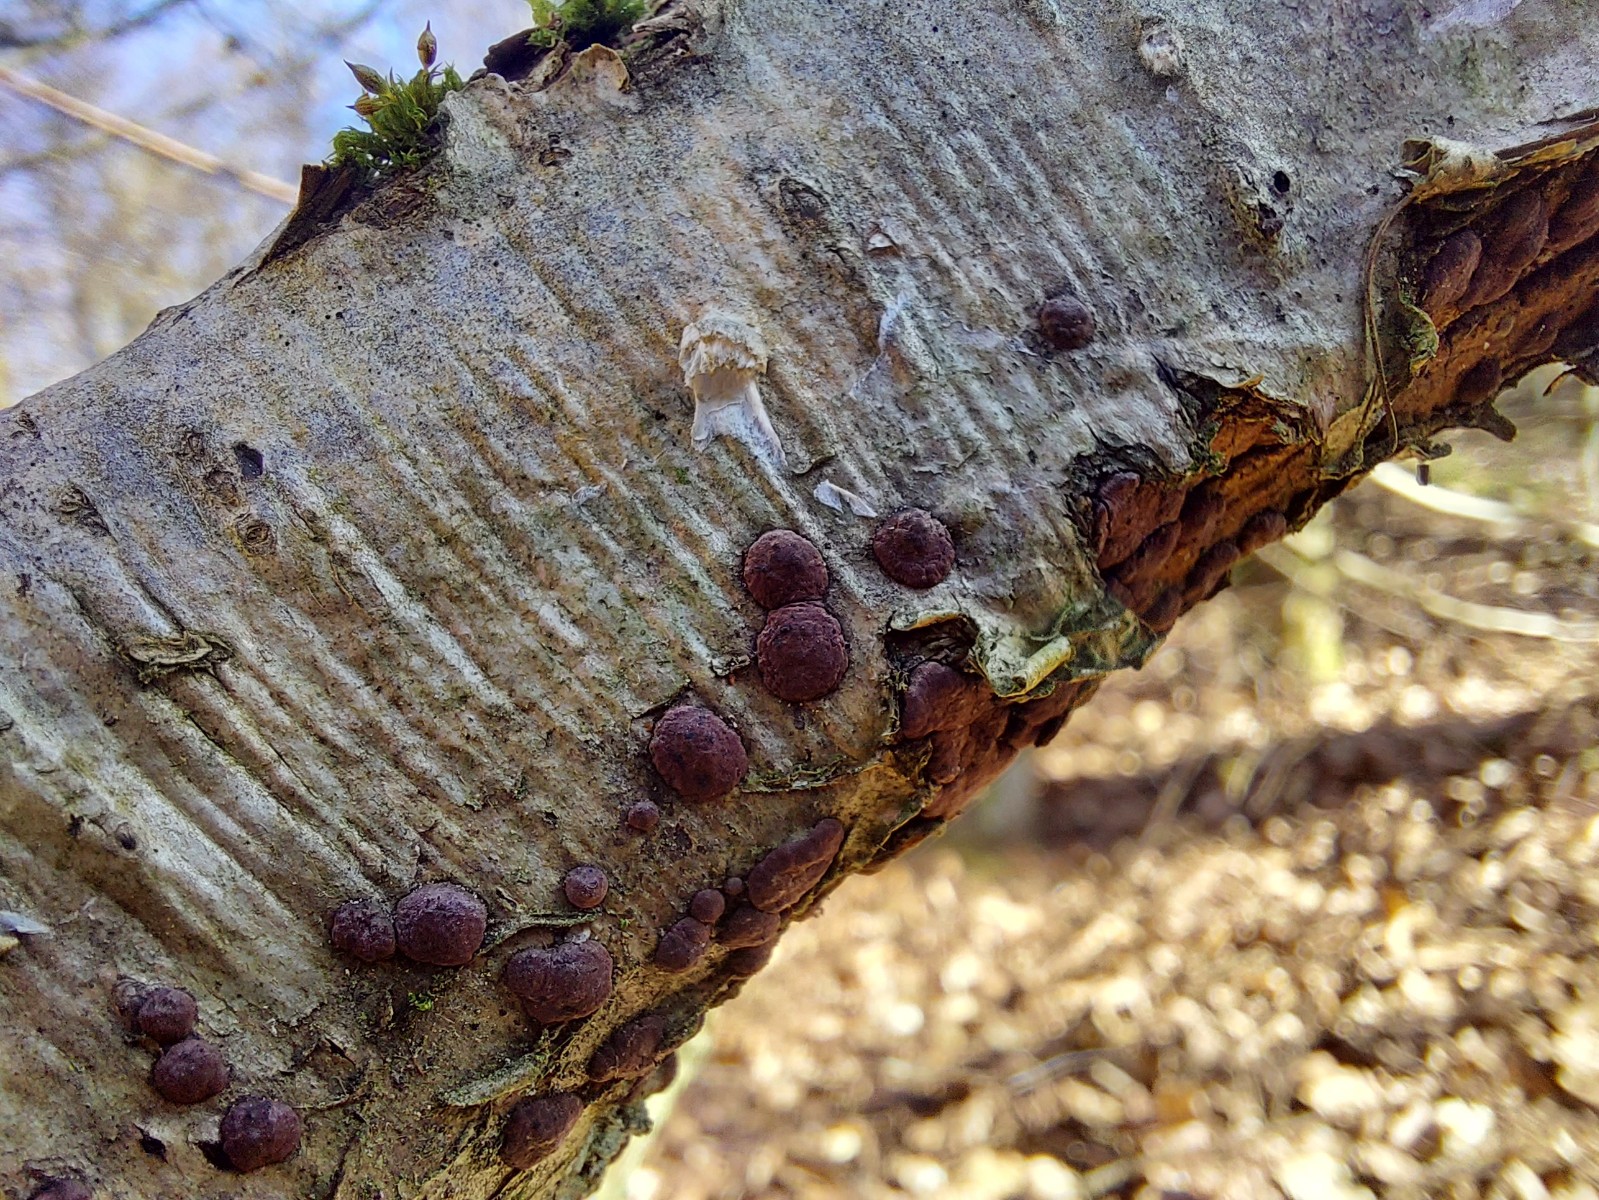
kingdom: Fungi
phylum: Ascomycota
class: Sordariomycetes
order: Xylariales
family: Hypoxylaceae
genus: Hypoxylon
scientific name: Hypoxylon fuscum
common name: kegleformet kulbær
